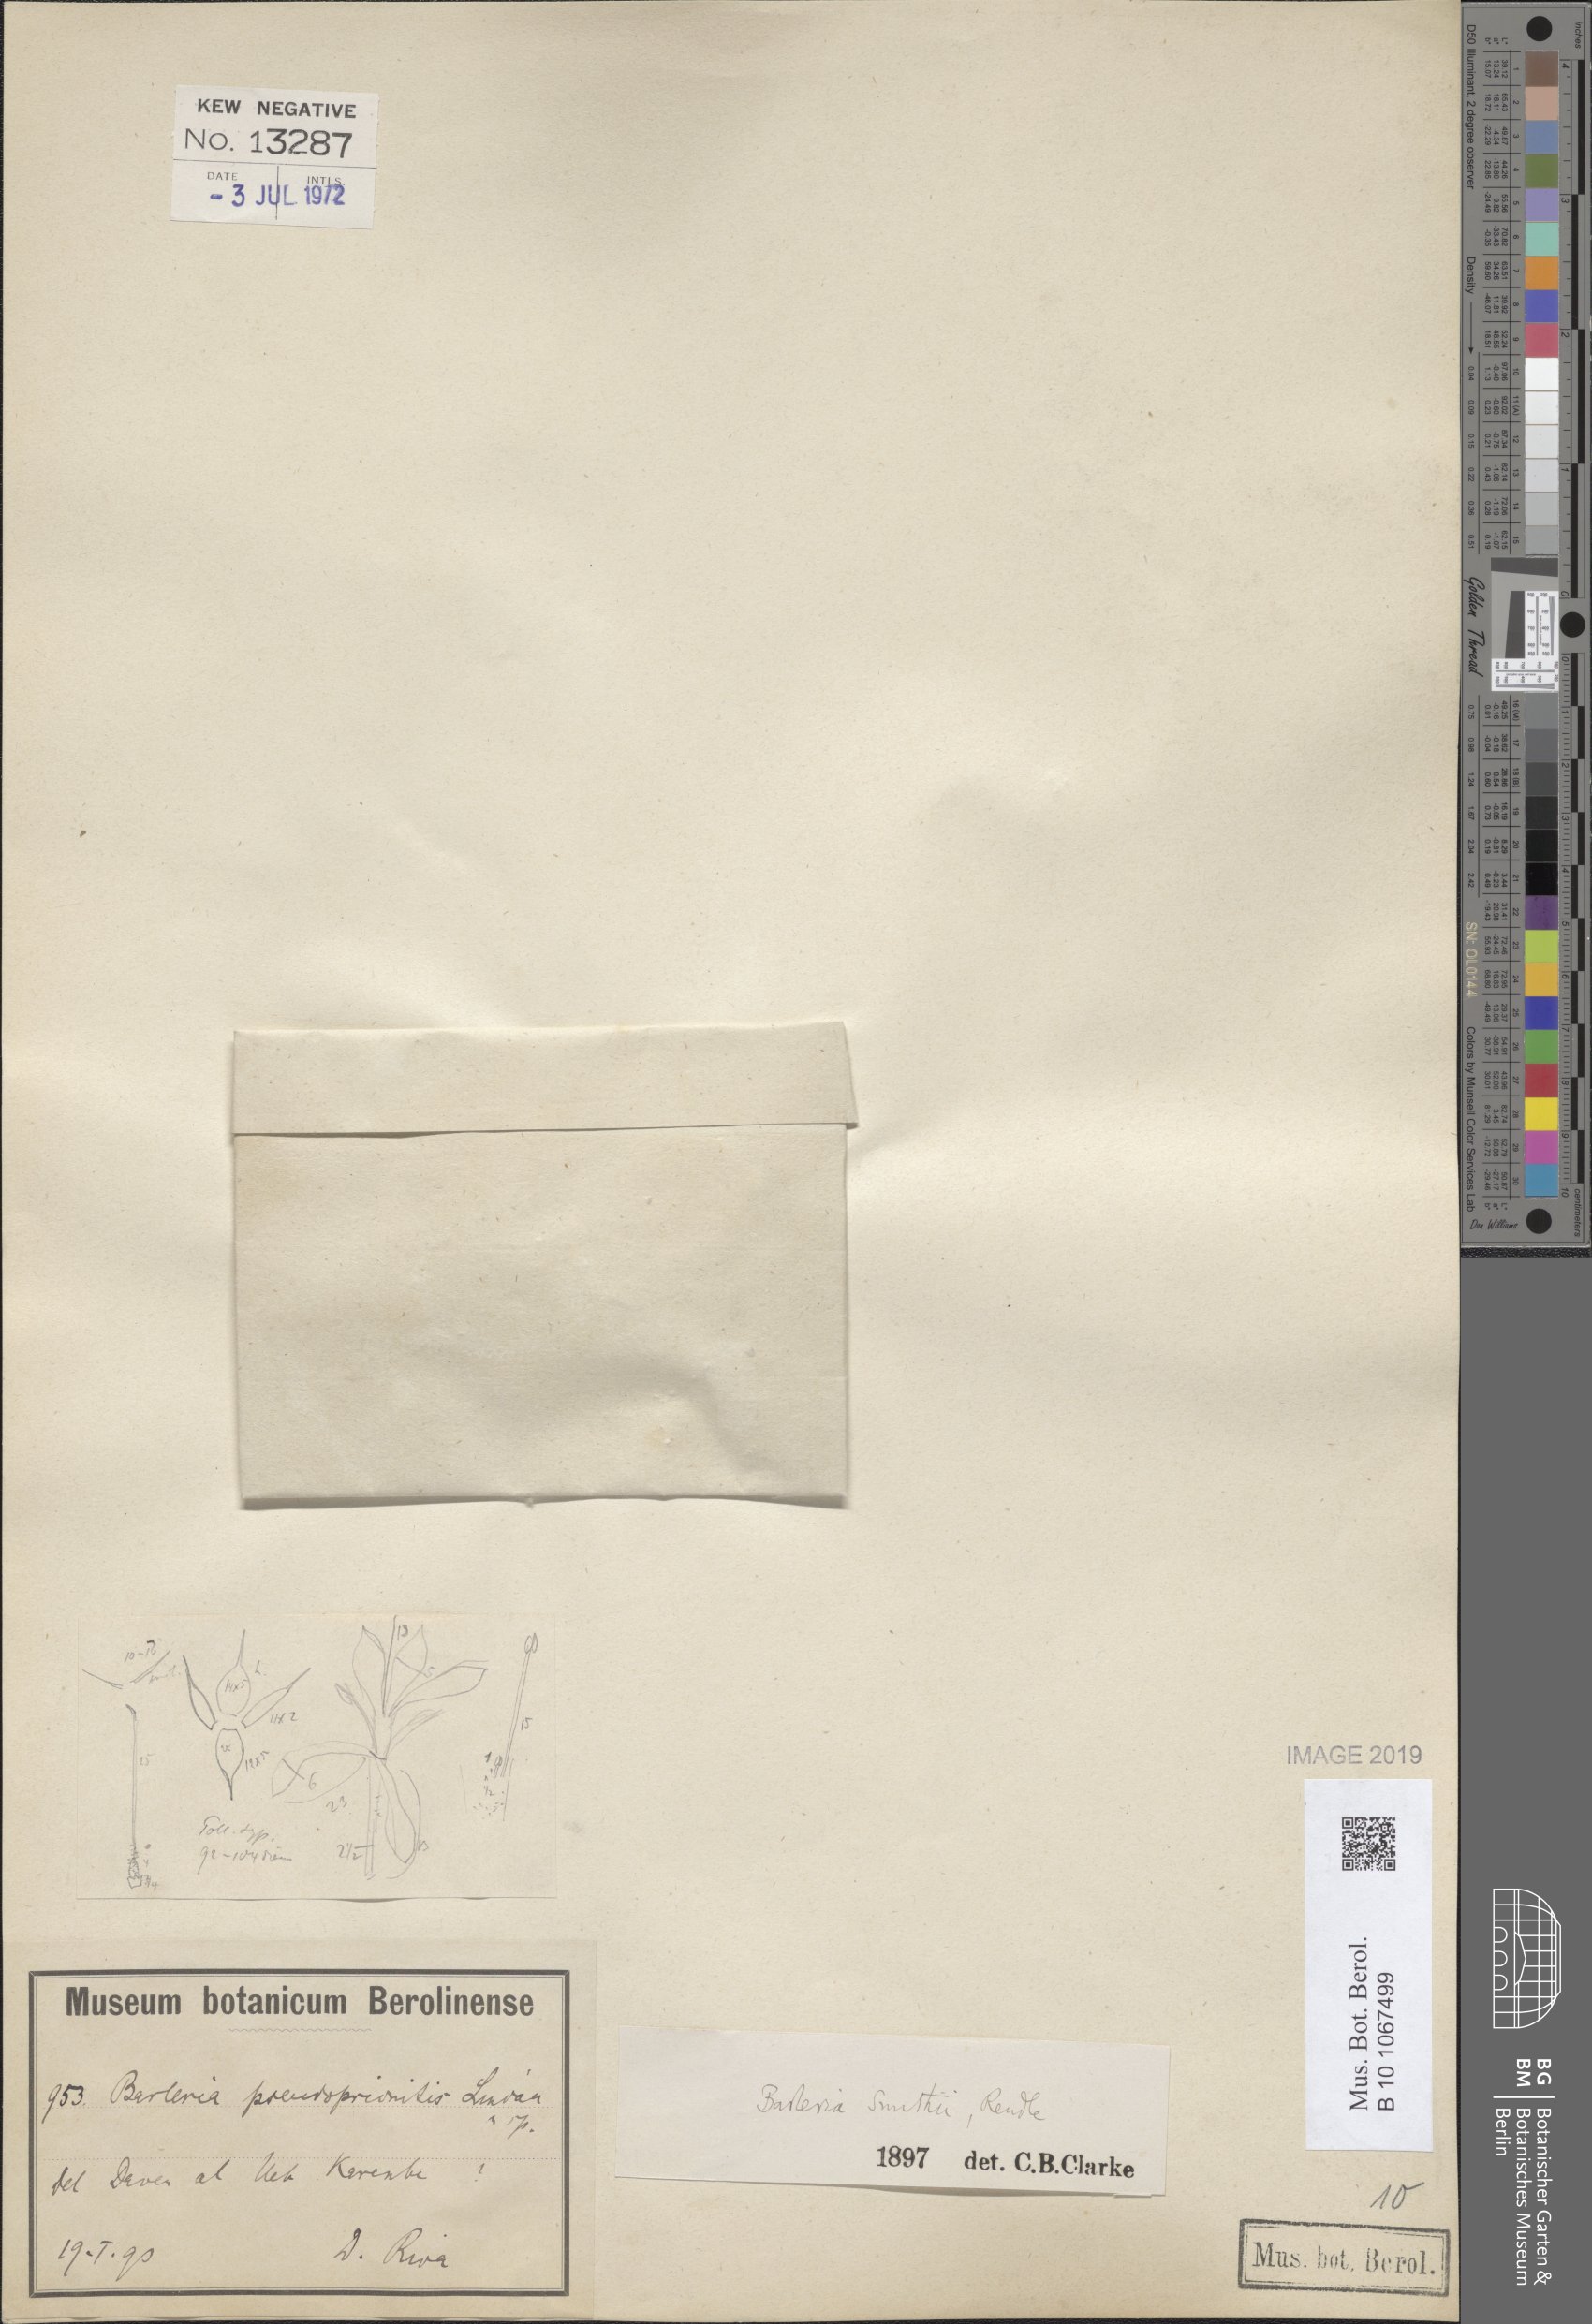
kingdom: Plantae
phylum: Tracheophyta
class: Magnoliopsida
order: Lamiales
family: Acanthaceae
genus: Barleria
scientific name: Barleria smithii
